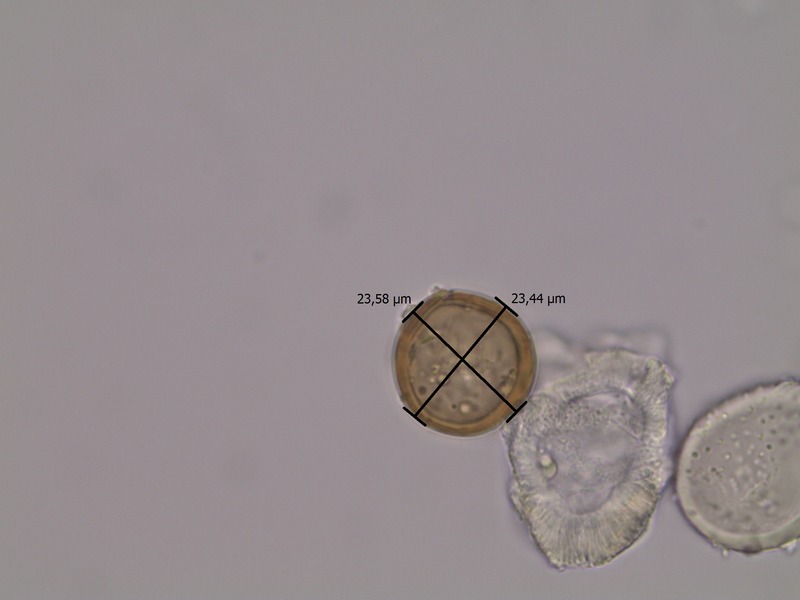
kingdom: Fungi
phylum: Basidiomycota
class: Pucciniomycetes
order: Pucciniales
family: Pucciniaceae
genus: Puccinia
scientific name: Puccinia punctata
